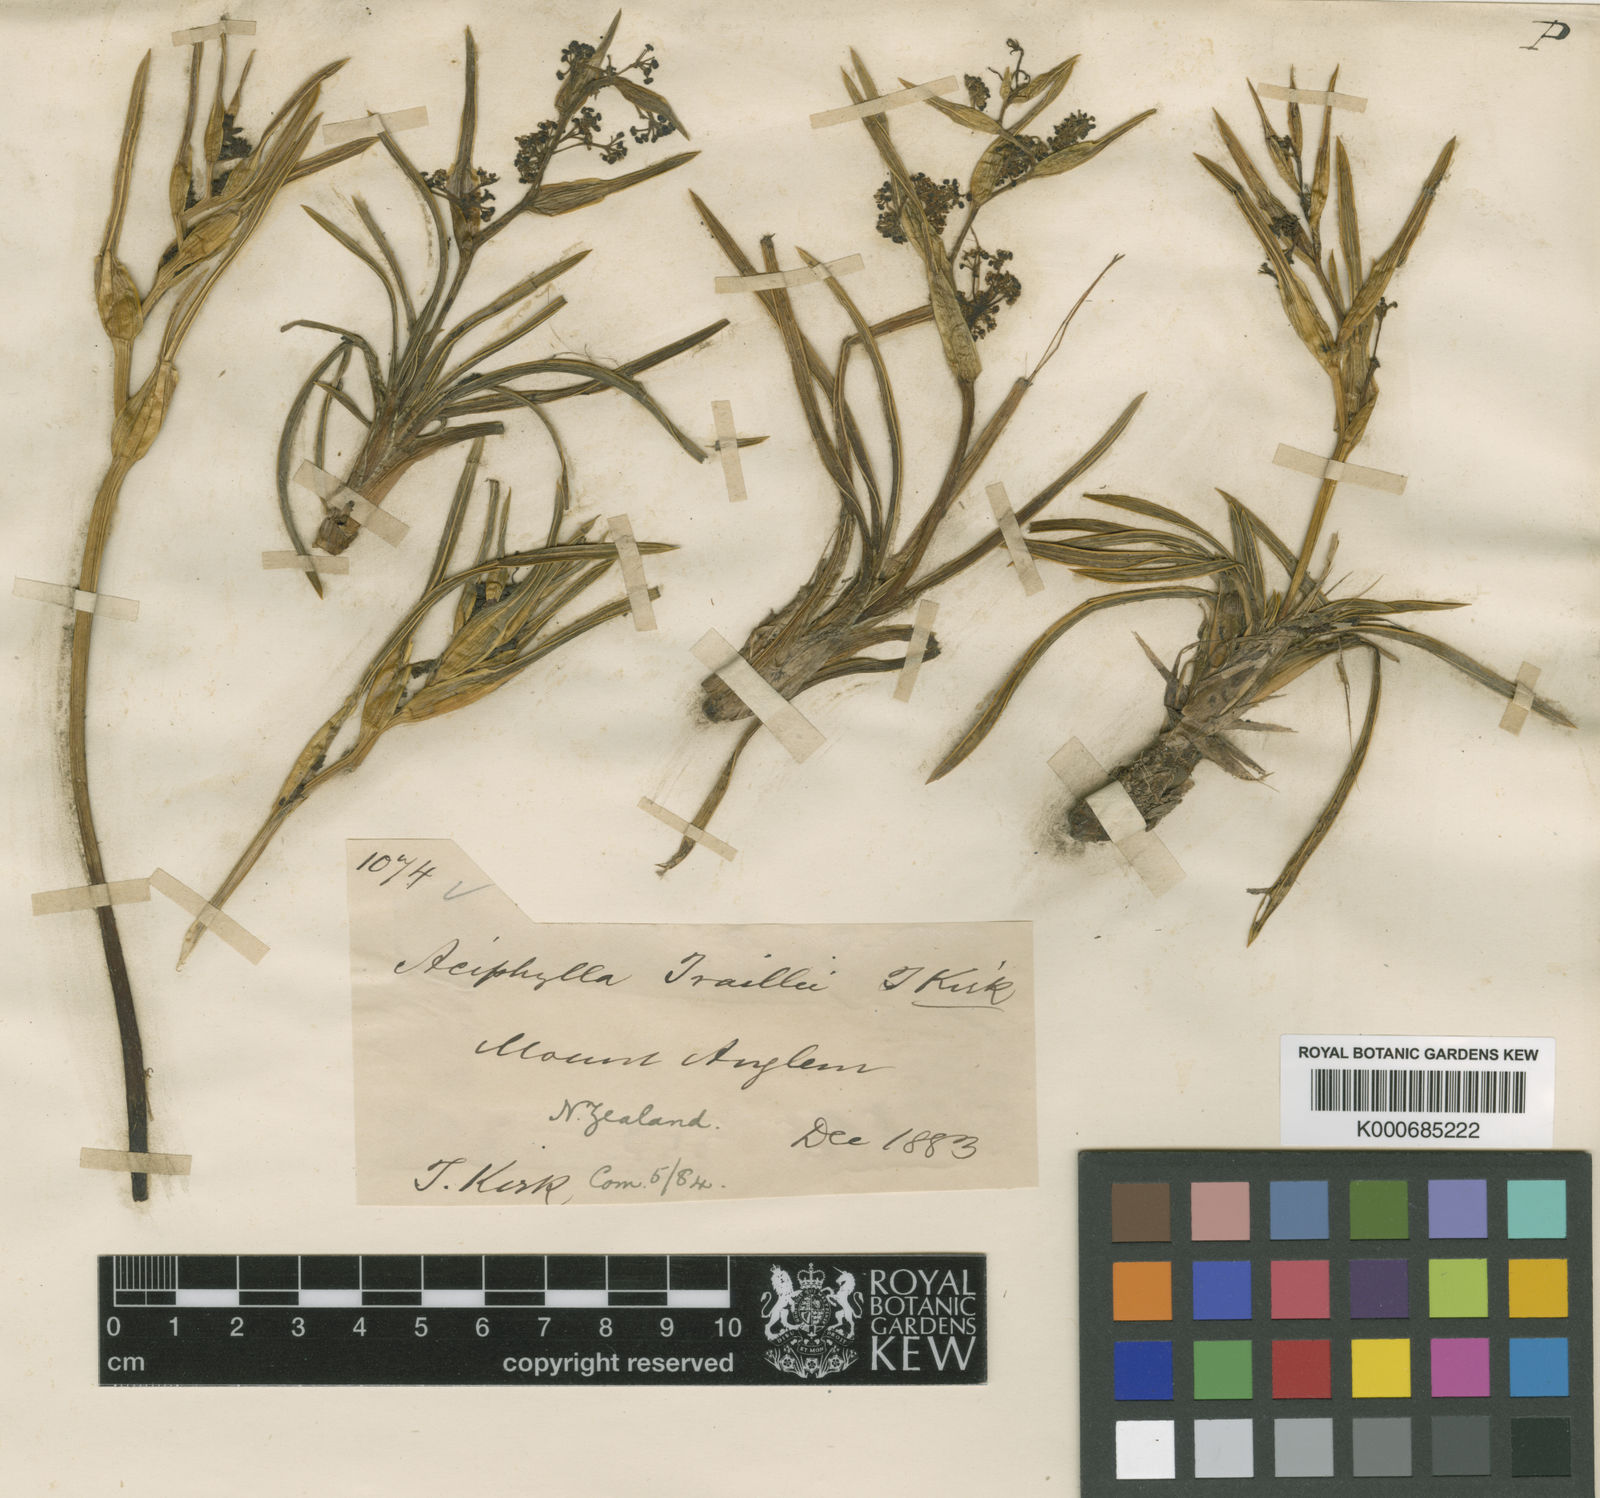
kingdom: Plantae
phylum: Tracheophyta
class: Magnoliopsida
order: Apiales
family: Apiaceae
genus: Aciphylla
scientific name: Aciphylla traillii
